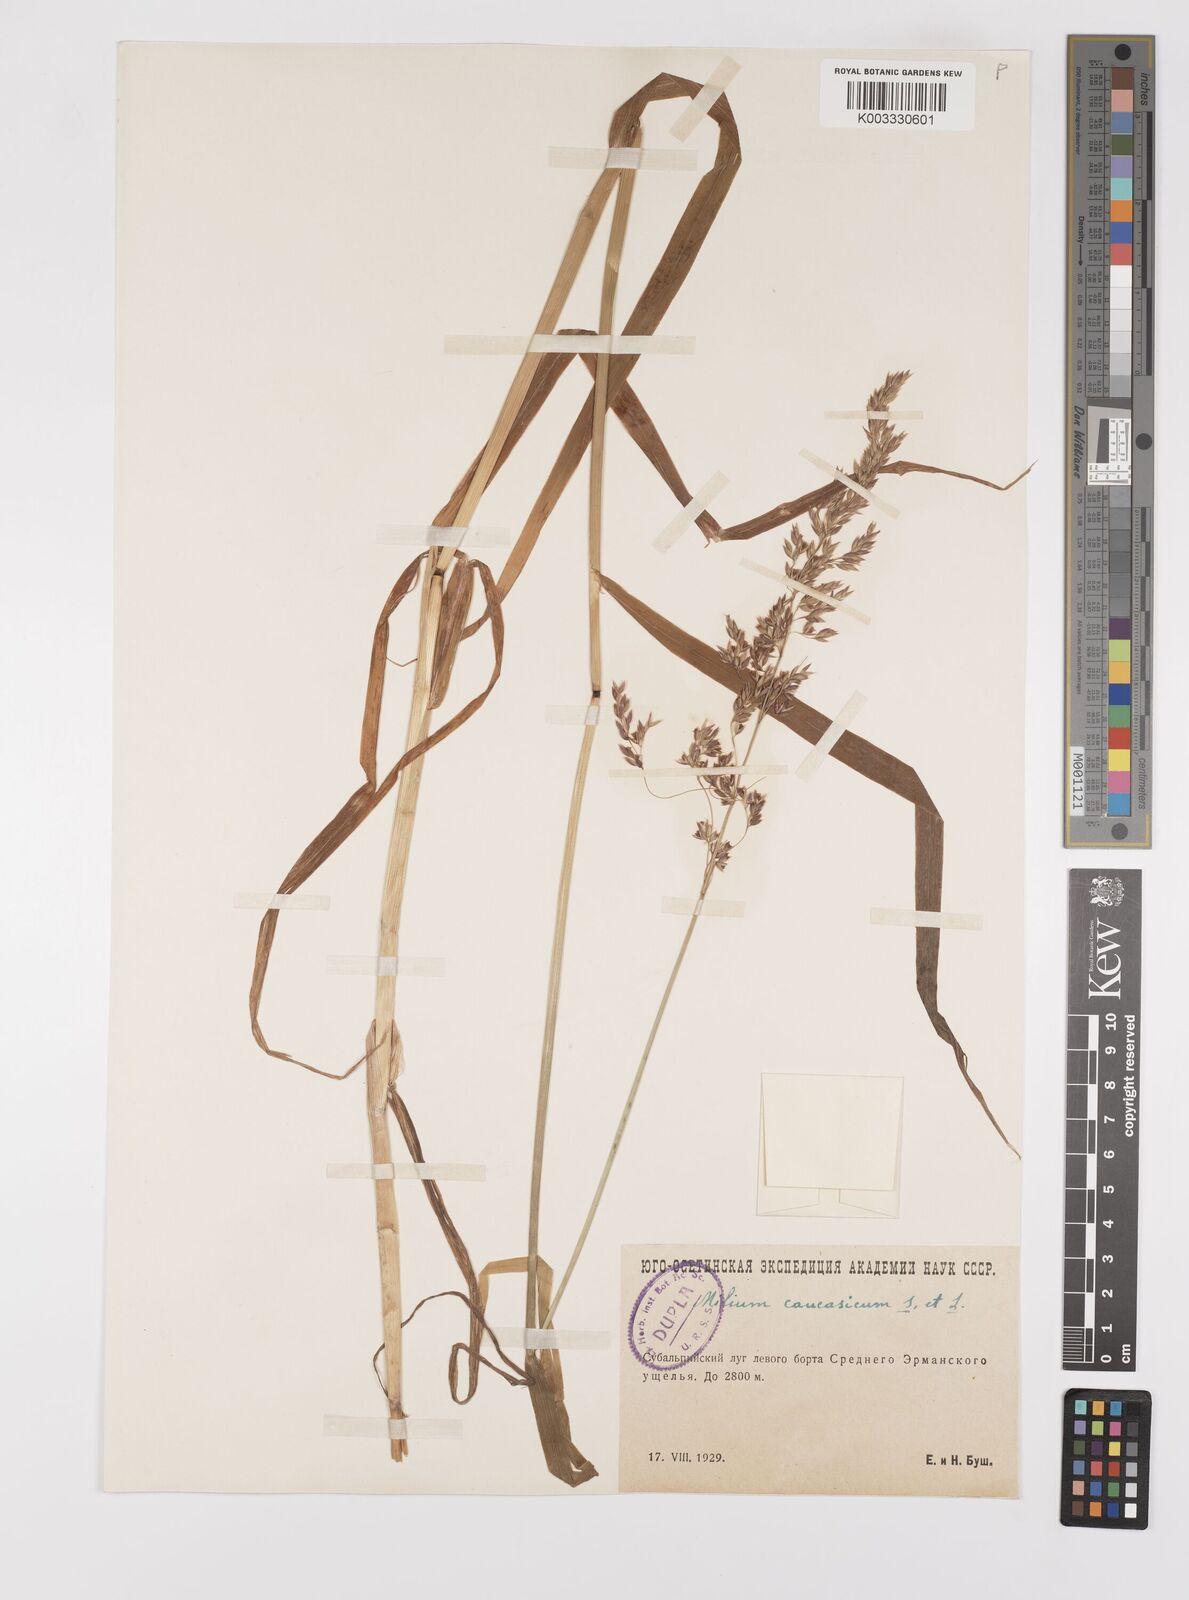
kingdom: Plantae
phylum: Tracheophyta
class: Liliopsida
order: Poales
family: Poaceae
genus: Milium
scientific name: Milium schmidtianum
